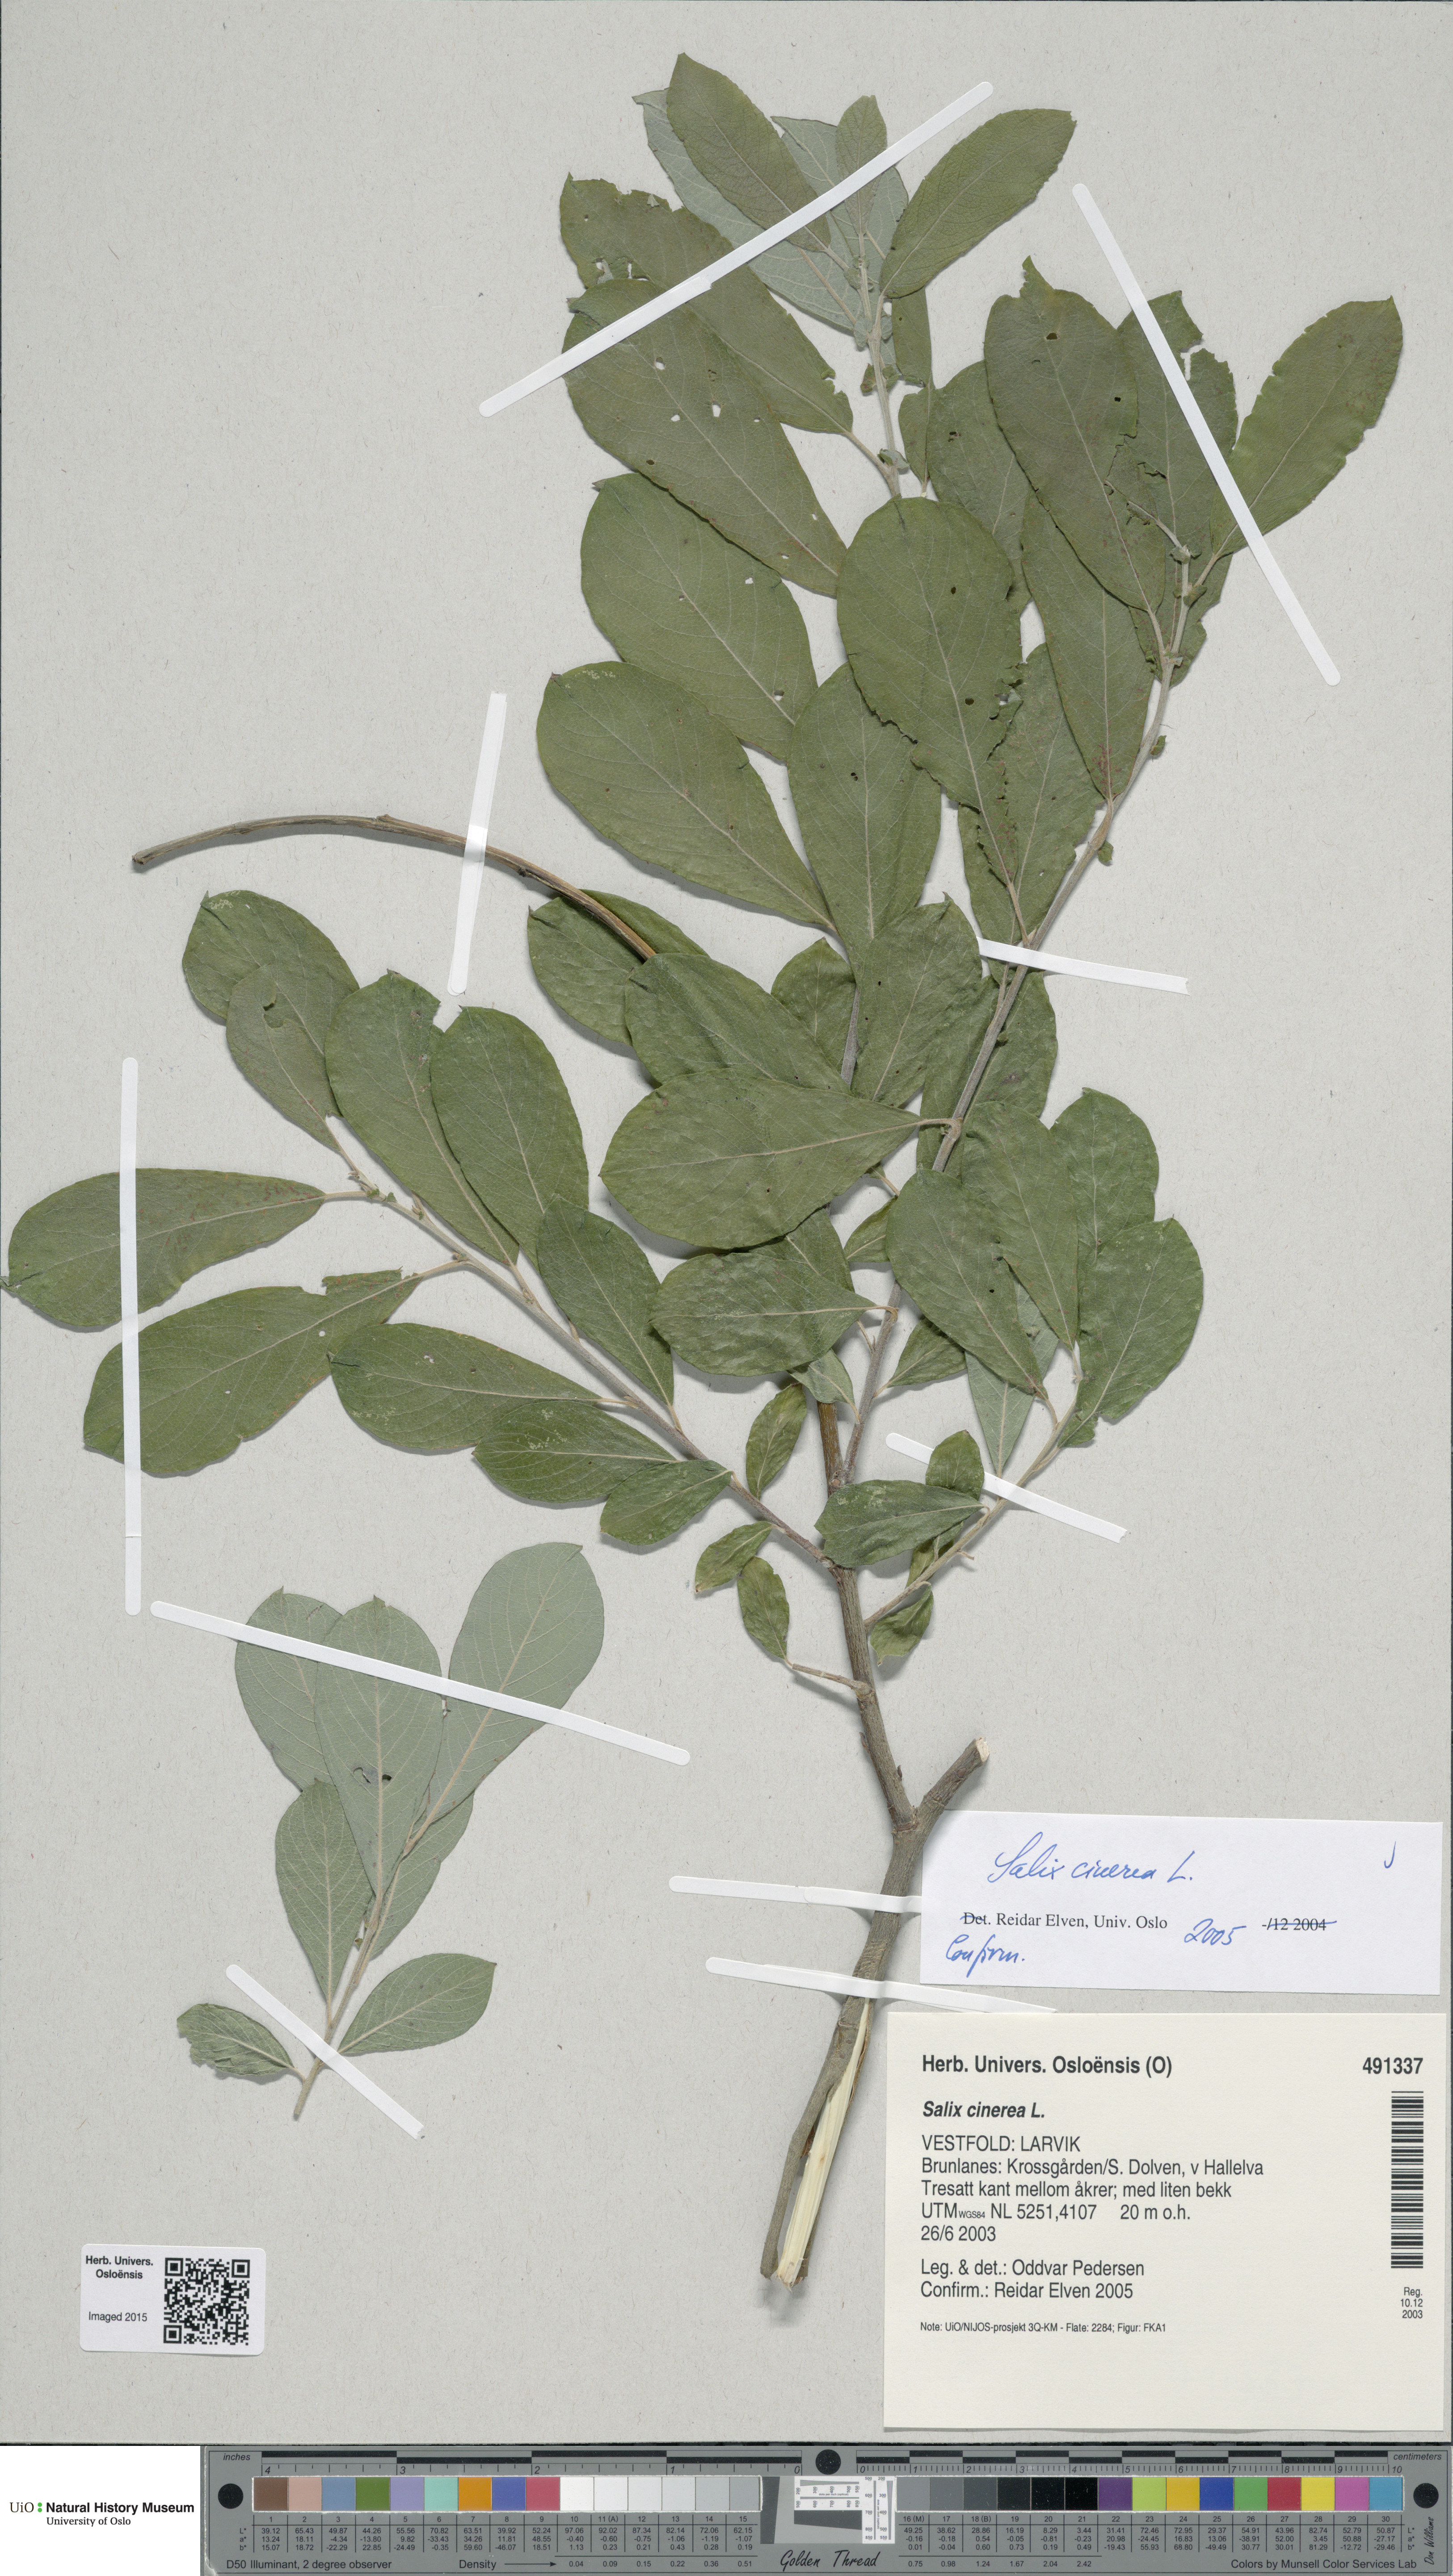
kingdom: Plantae
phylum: Tracheophyta
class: Magnoliopsida
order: Malpighiales
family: Salicaceae
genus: Salix
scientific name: Salix cinerea
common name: Common sallow
